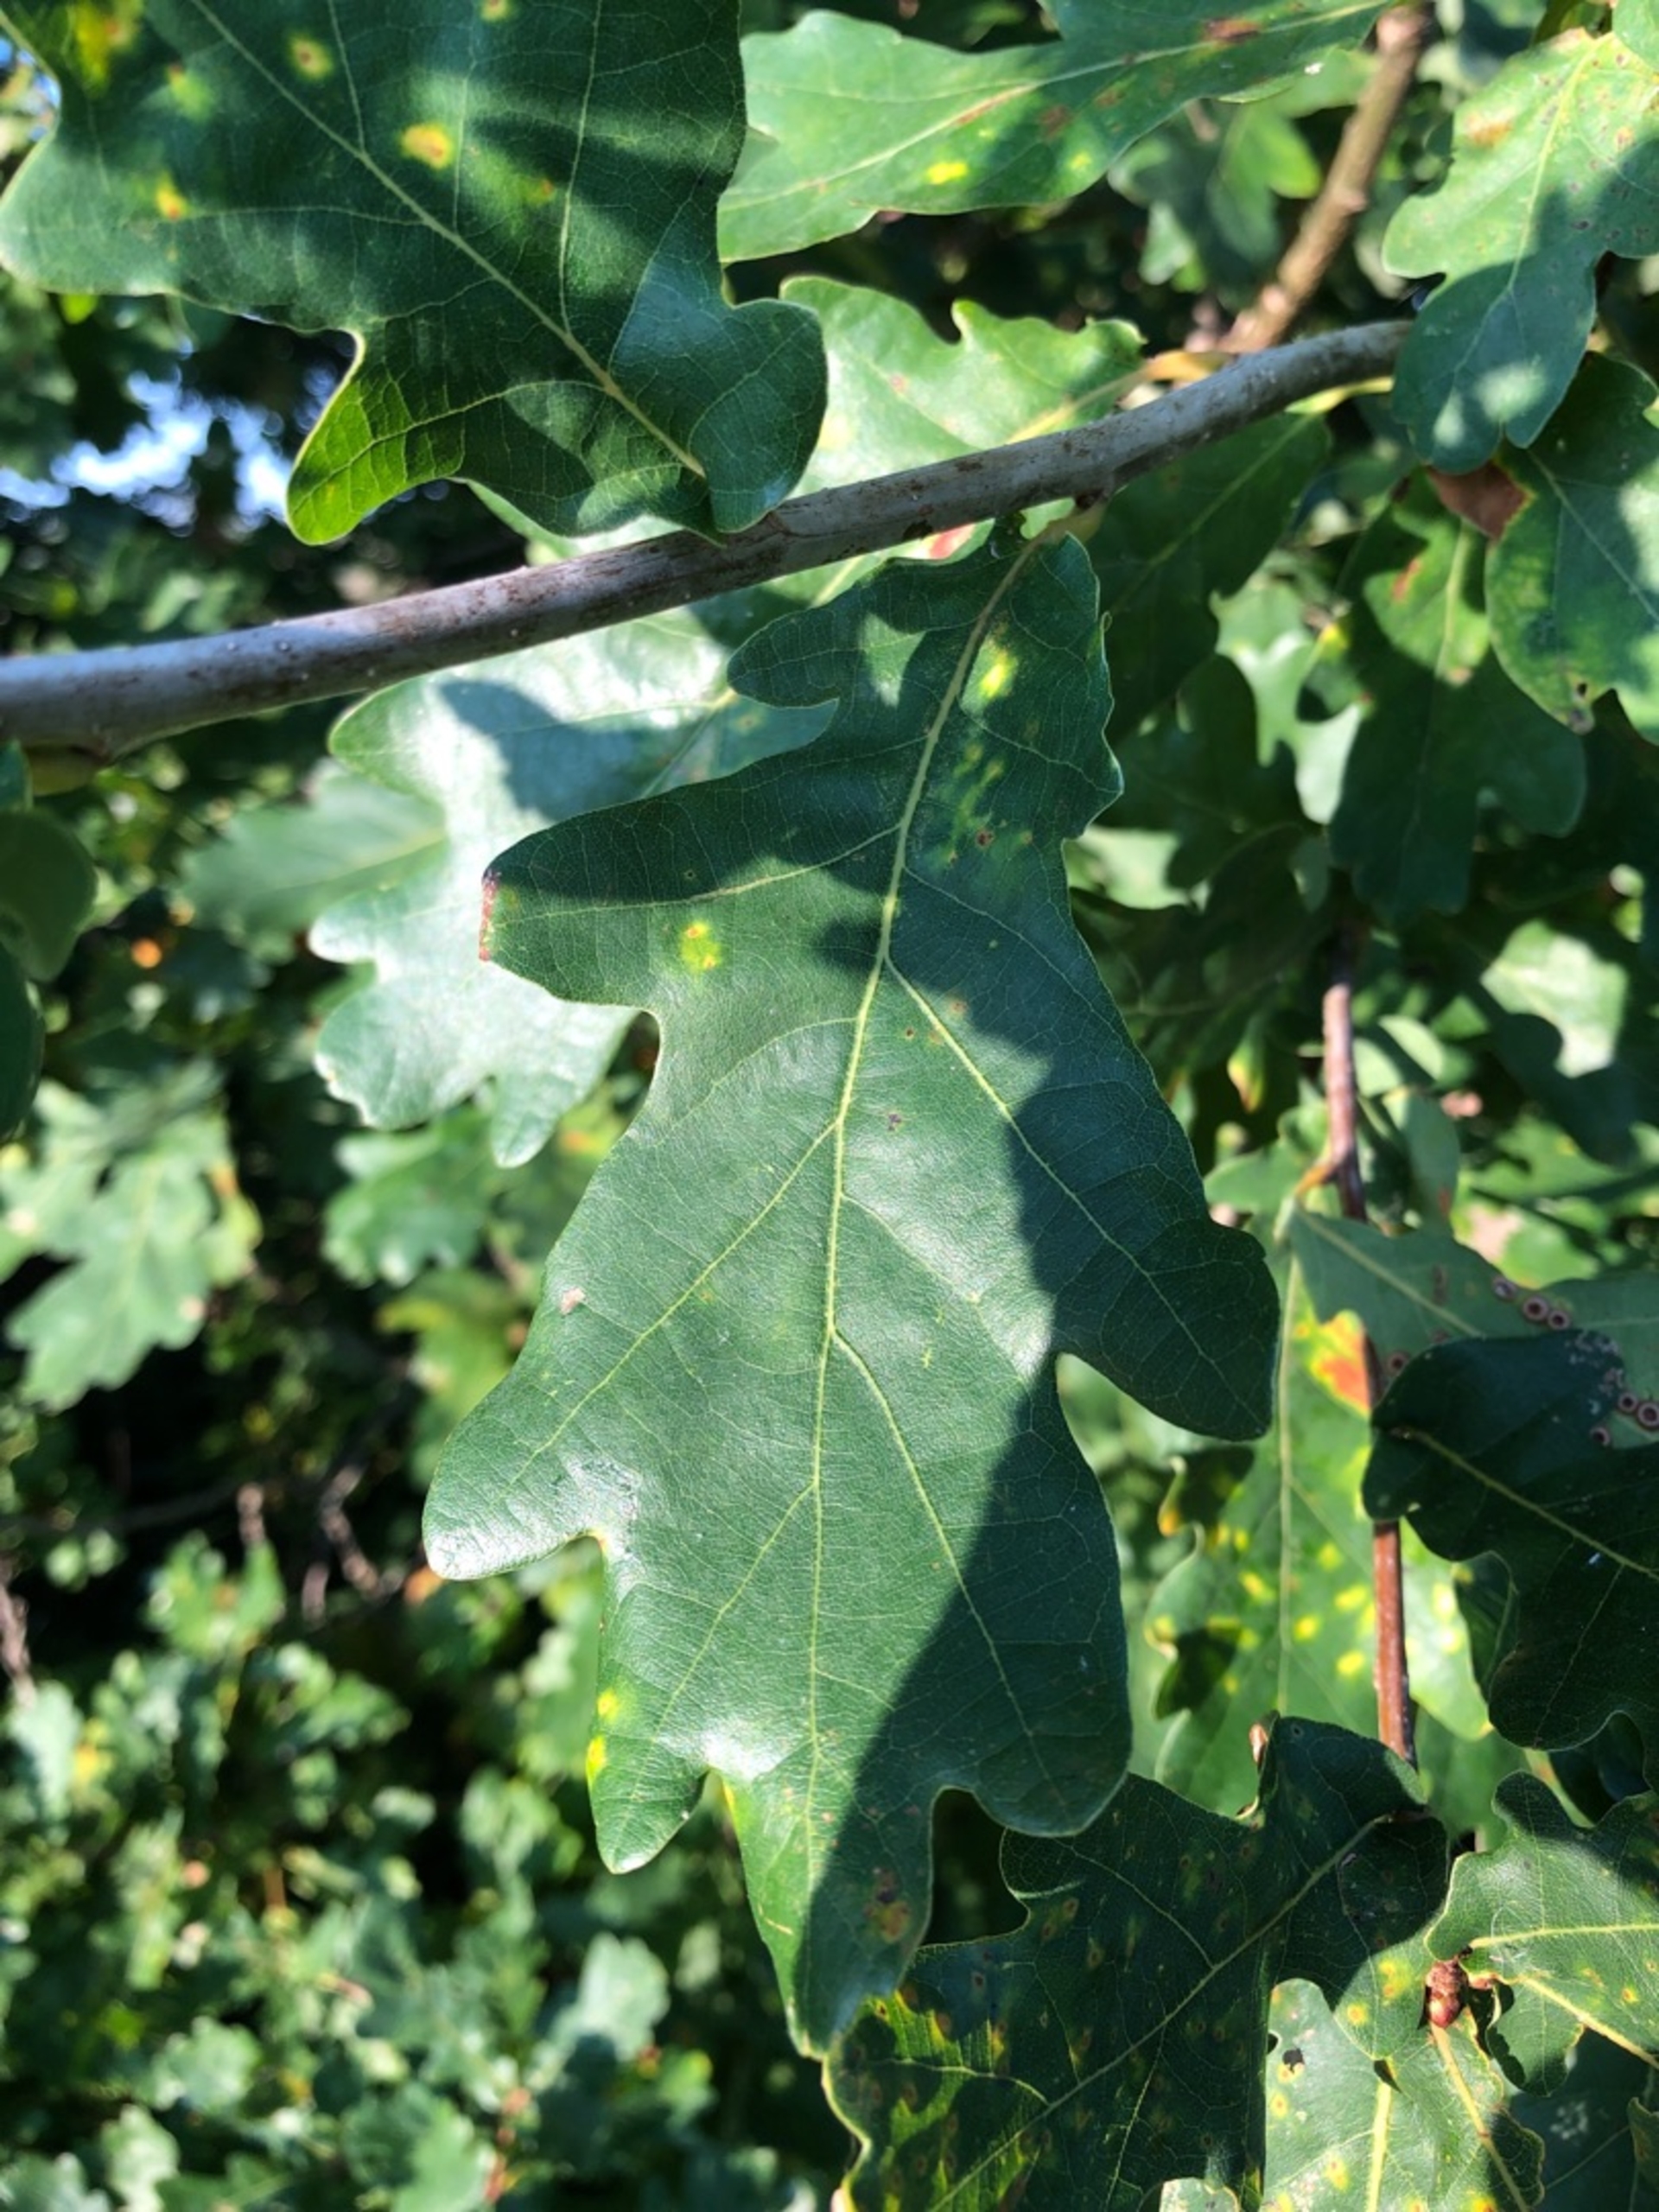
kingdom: Plantae
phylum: Tracheophyta
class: Magnoliopsida
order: Fagales
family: Fagaceae
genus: Quercus
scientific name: Quercus robur
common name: Stilk-eg/almindelig eg
